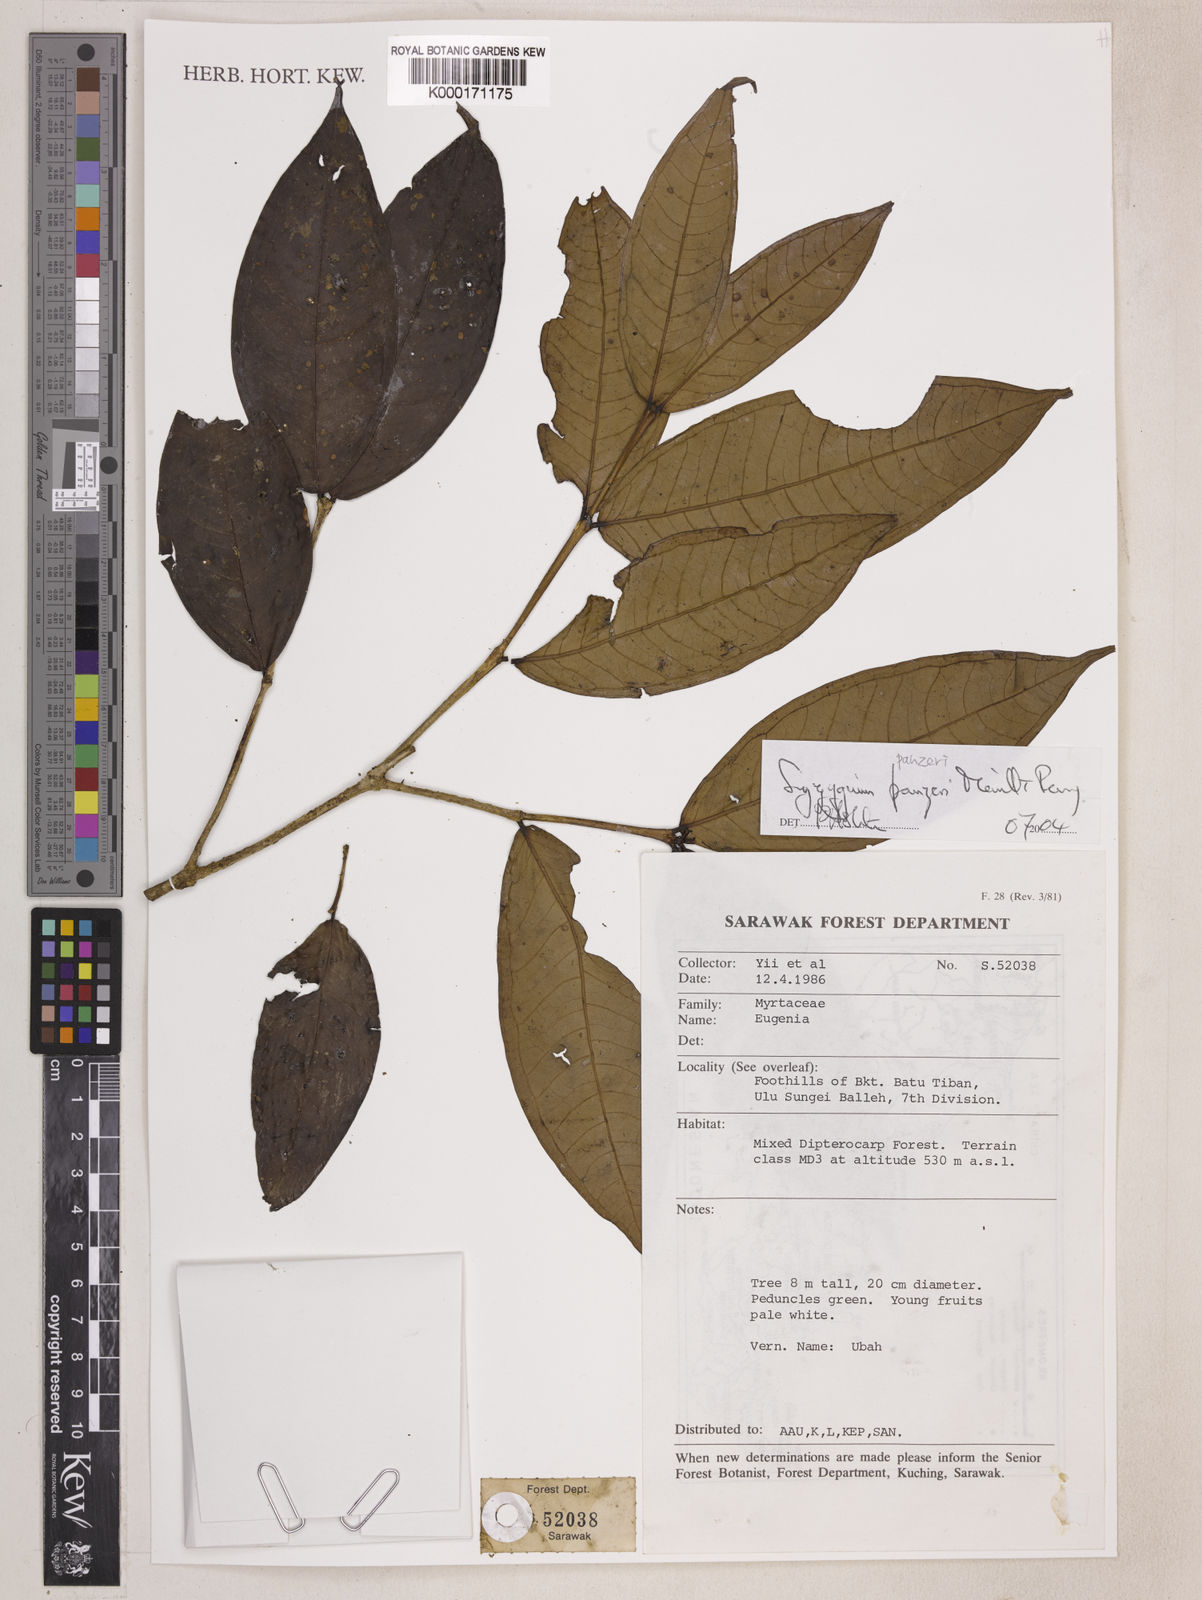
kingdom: Plantae
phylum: Tracheophyta
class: Magnoliopsida
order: Myrtales
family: Myrtaceae
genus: Syzygium
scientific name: Syzygium panzeri
